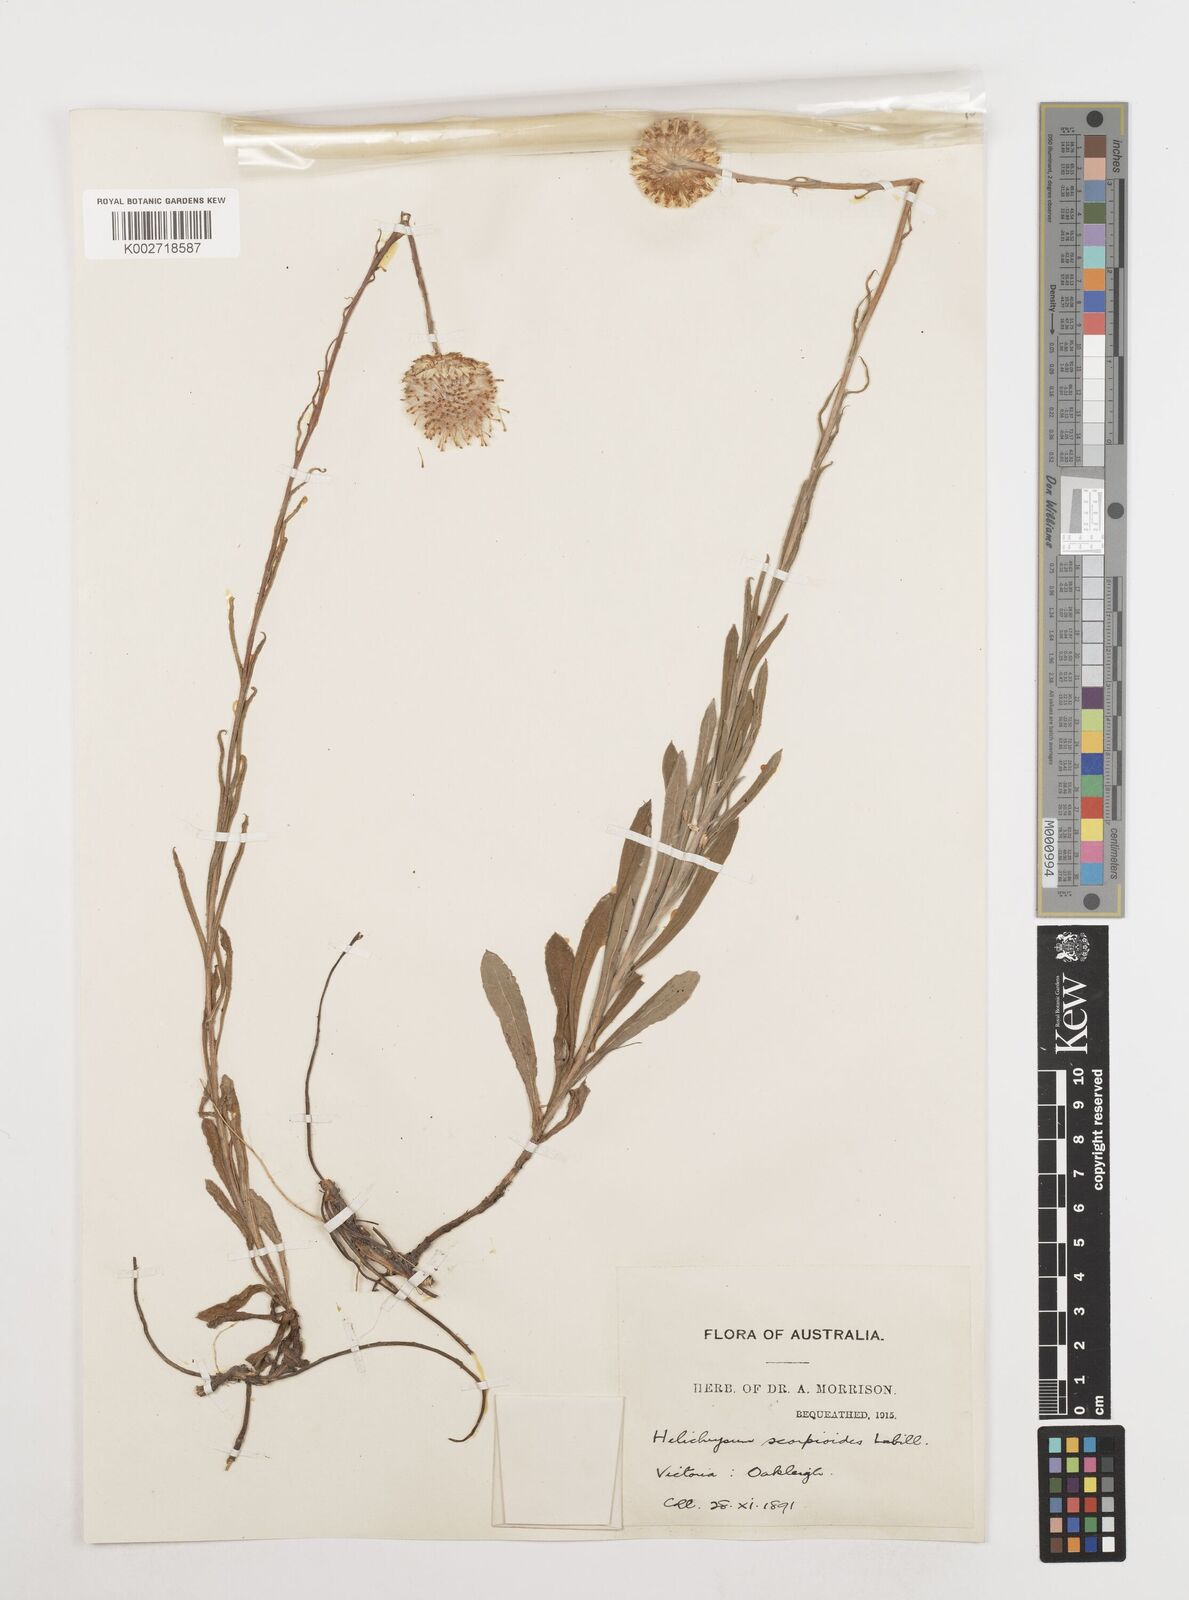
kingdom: Plantae
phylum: Tracheophyta
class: Magnoliopsida
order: Asterales
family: Asteraceae
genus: Coronidium
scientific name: Coronidium scorpioides
